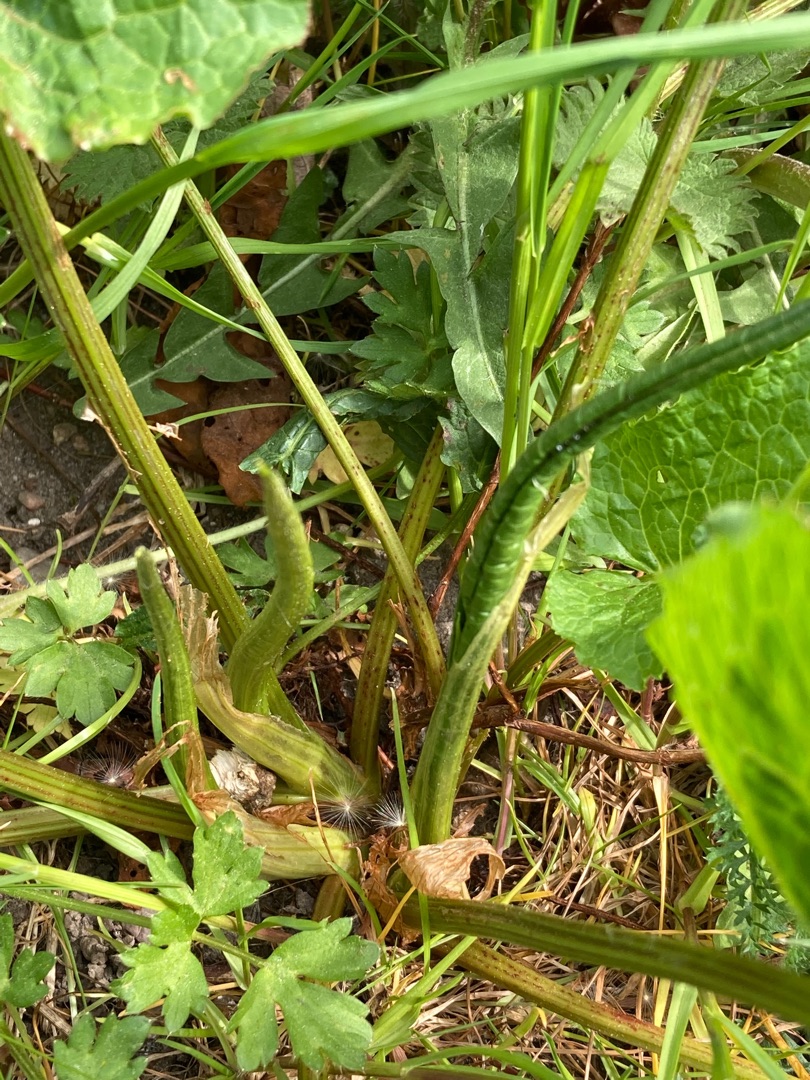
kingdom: Plantae
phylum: Tracheophyta
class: Magnoliopsida
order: Caryophyllales
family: Polygonaceae
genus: Rumex
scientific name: Rumex obtusifolius
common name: Butbladet skræppe
